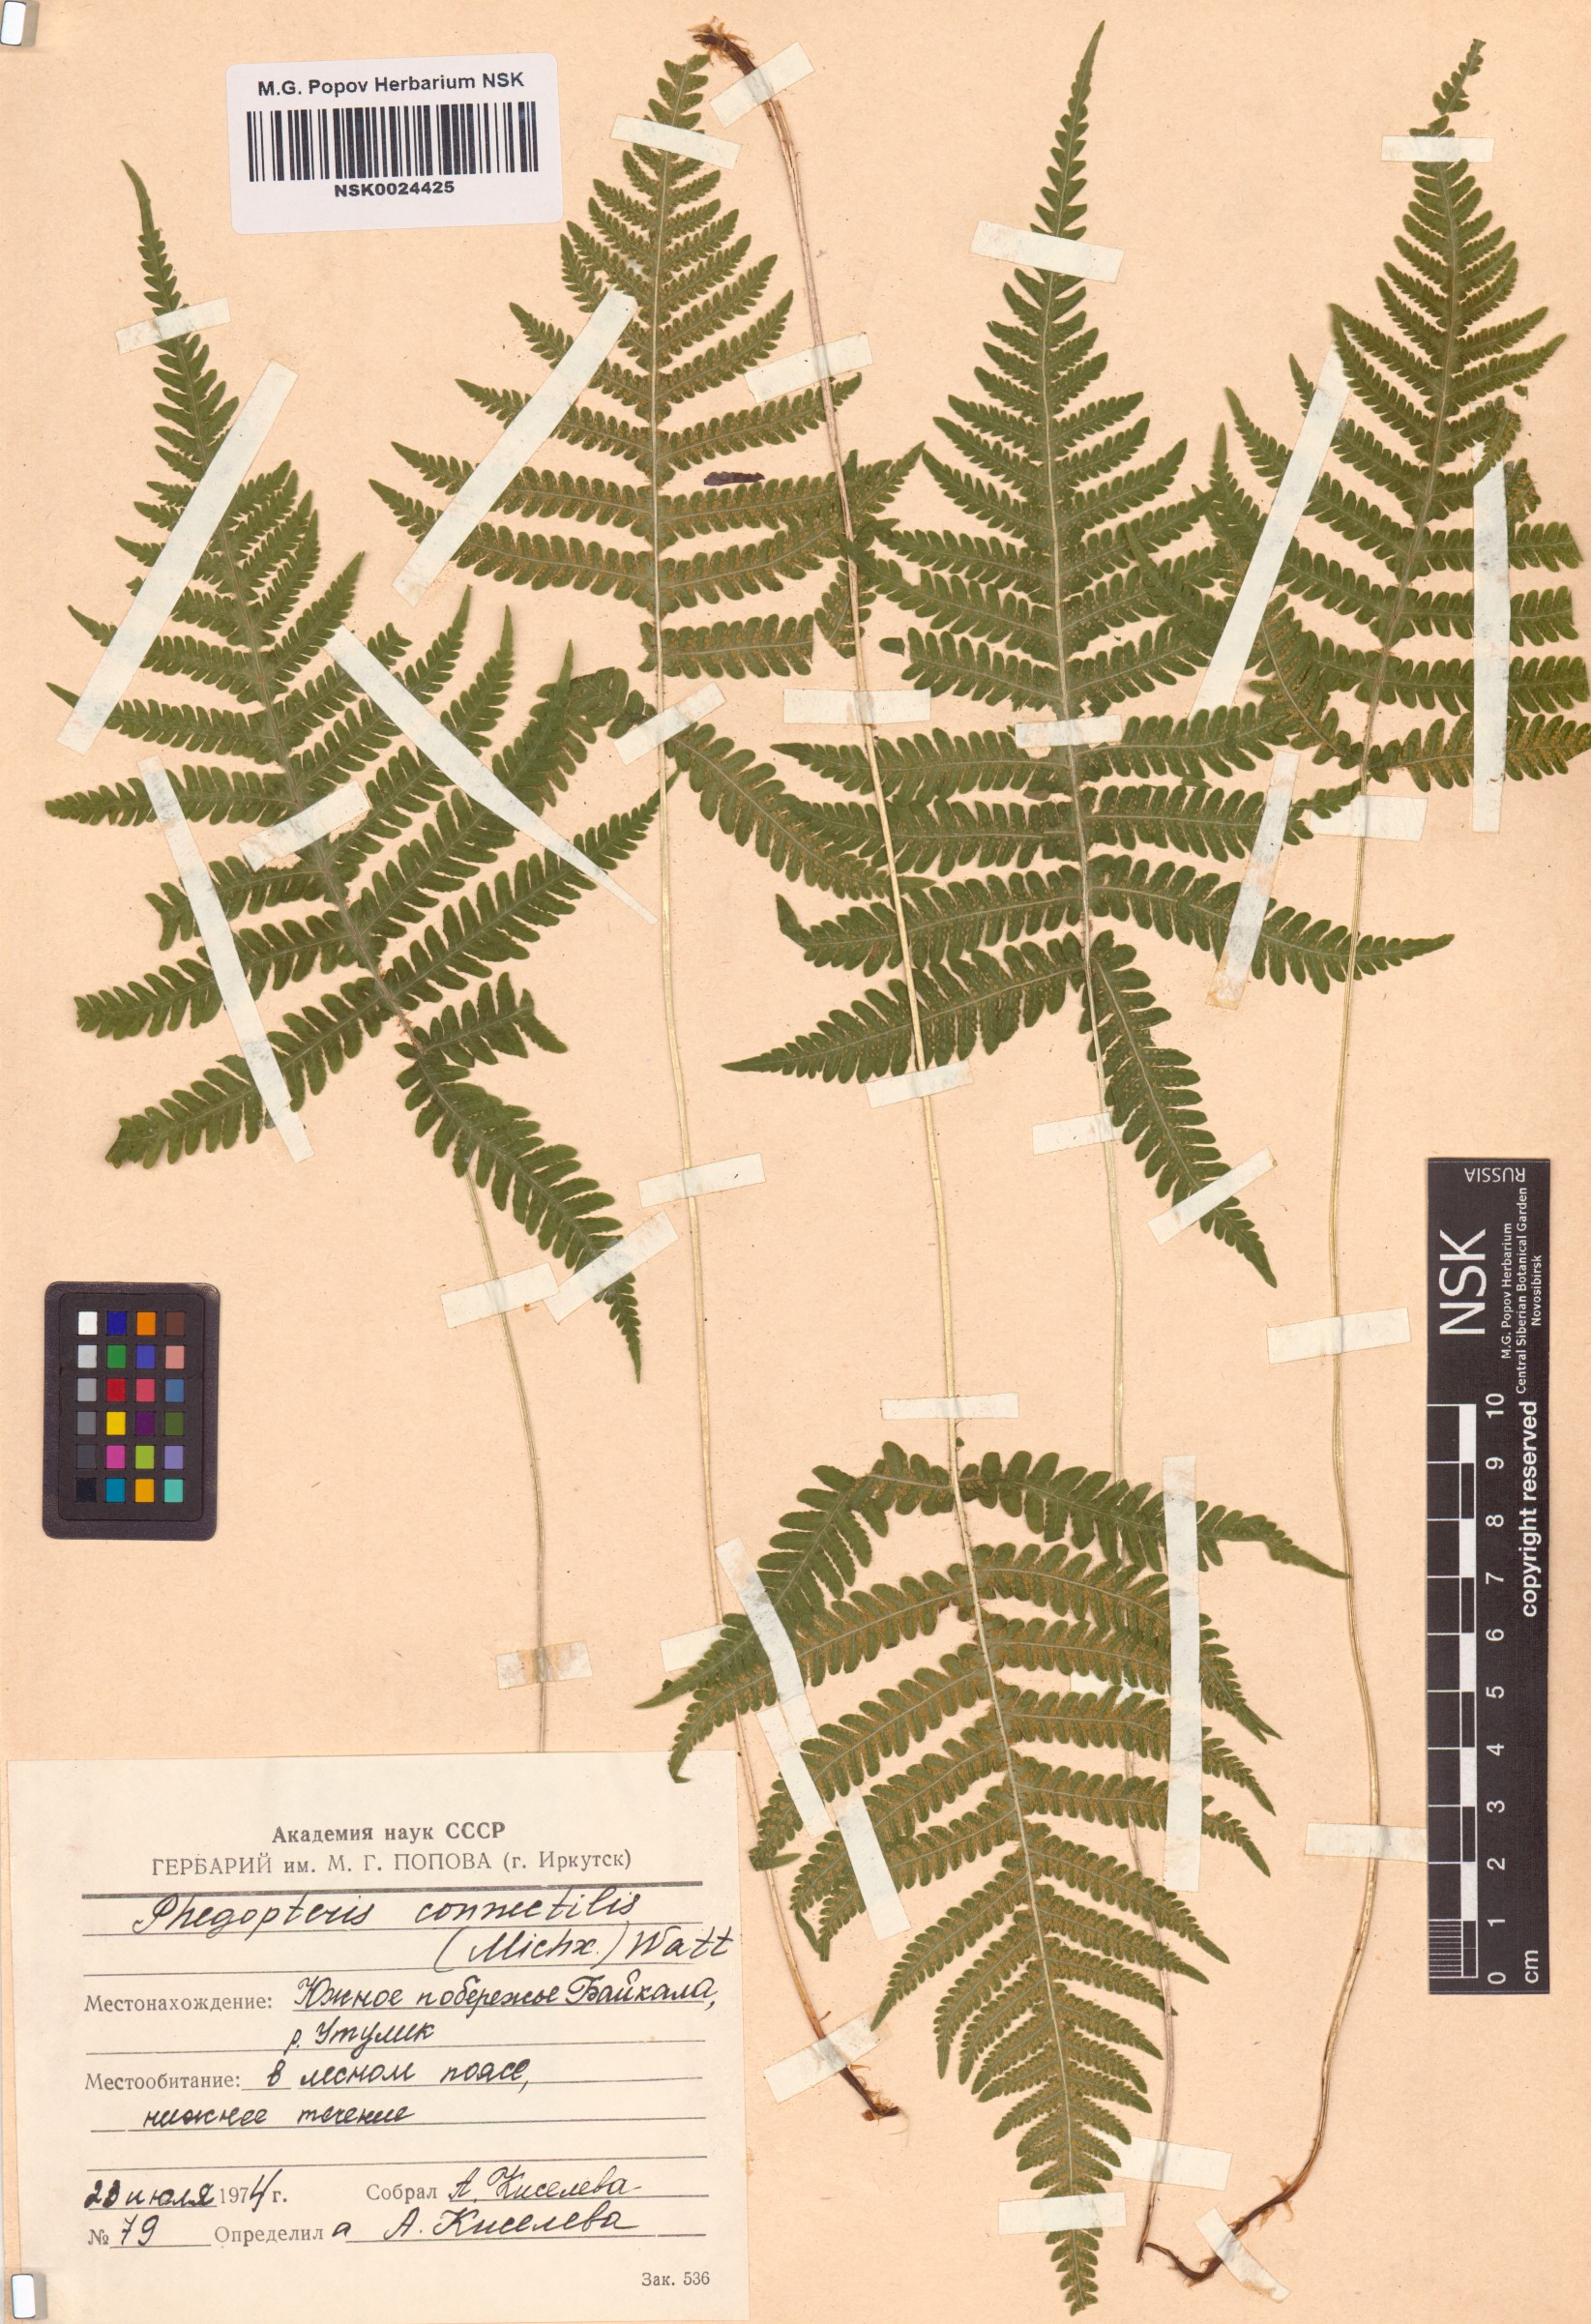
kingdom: Plantae
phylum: Tracheophyta
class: Polypodiopsida
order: Polypodiales
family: Thelypteridaceae
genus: Phegopteris
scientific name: Phegopteris connectilis
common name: Beech fern
